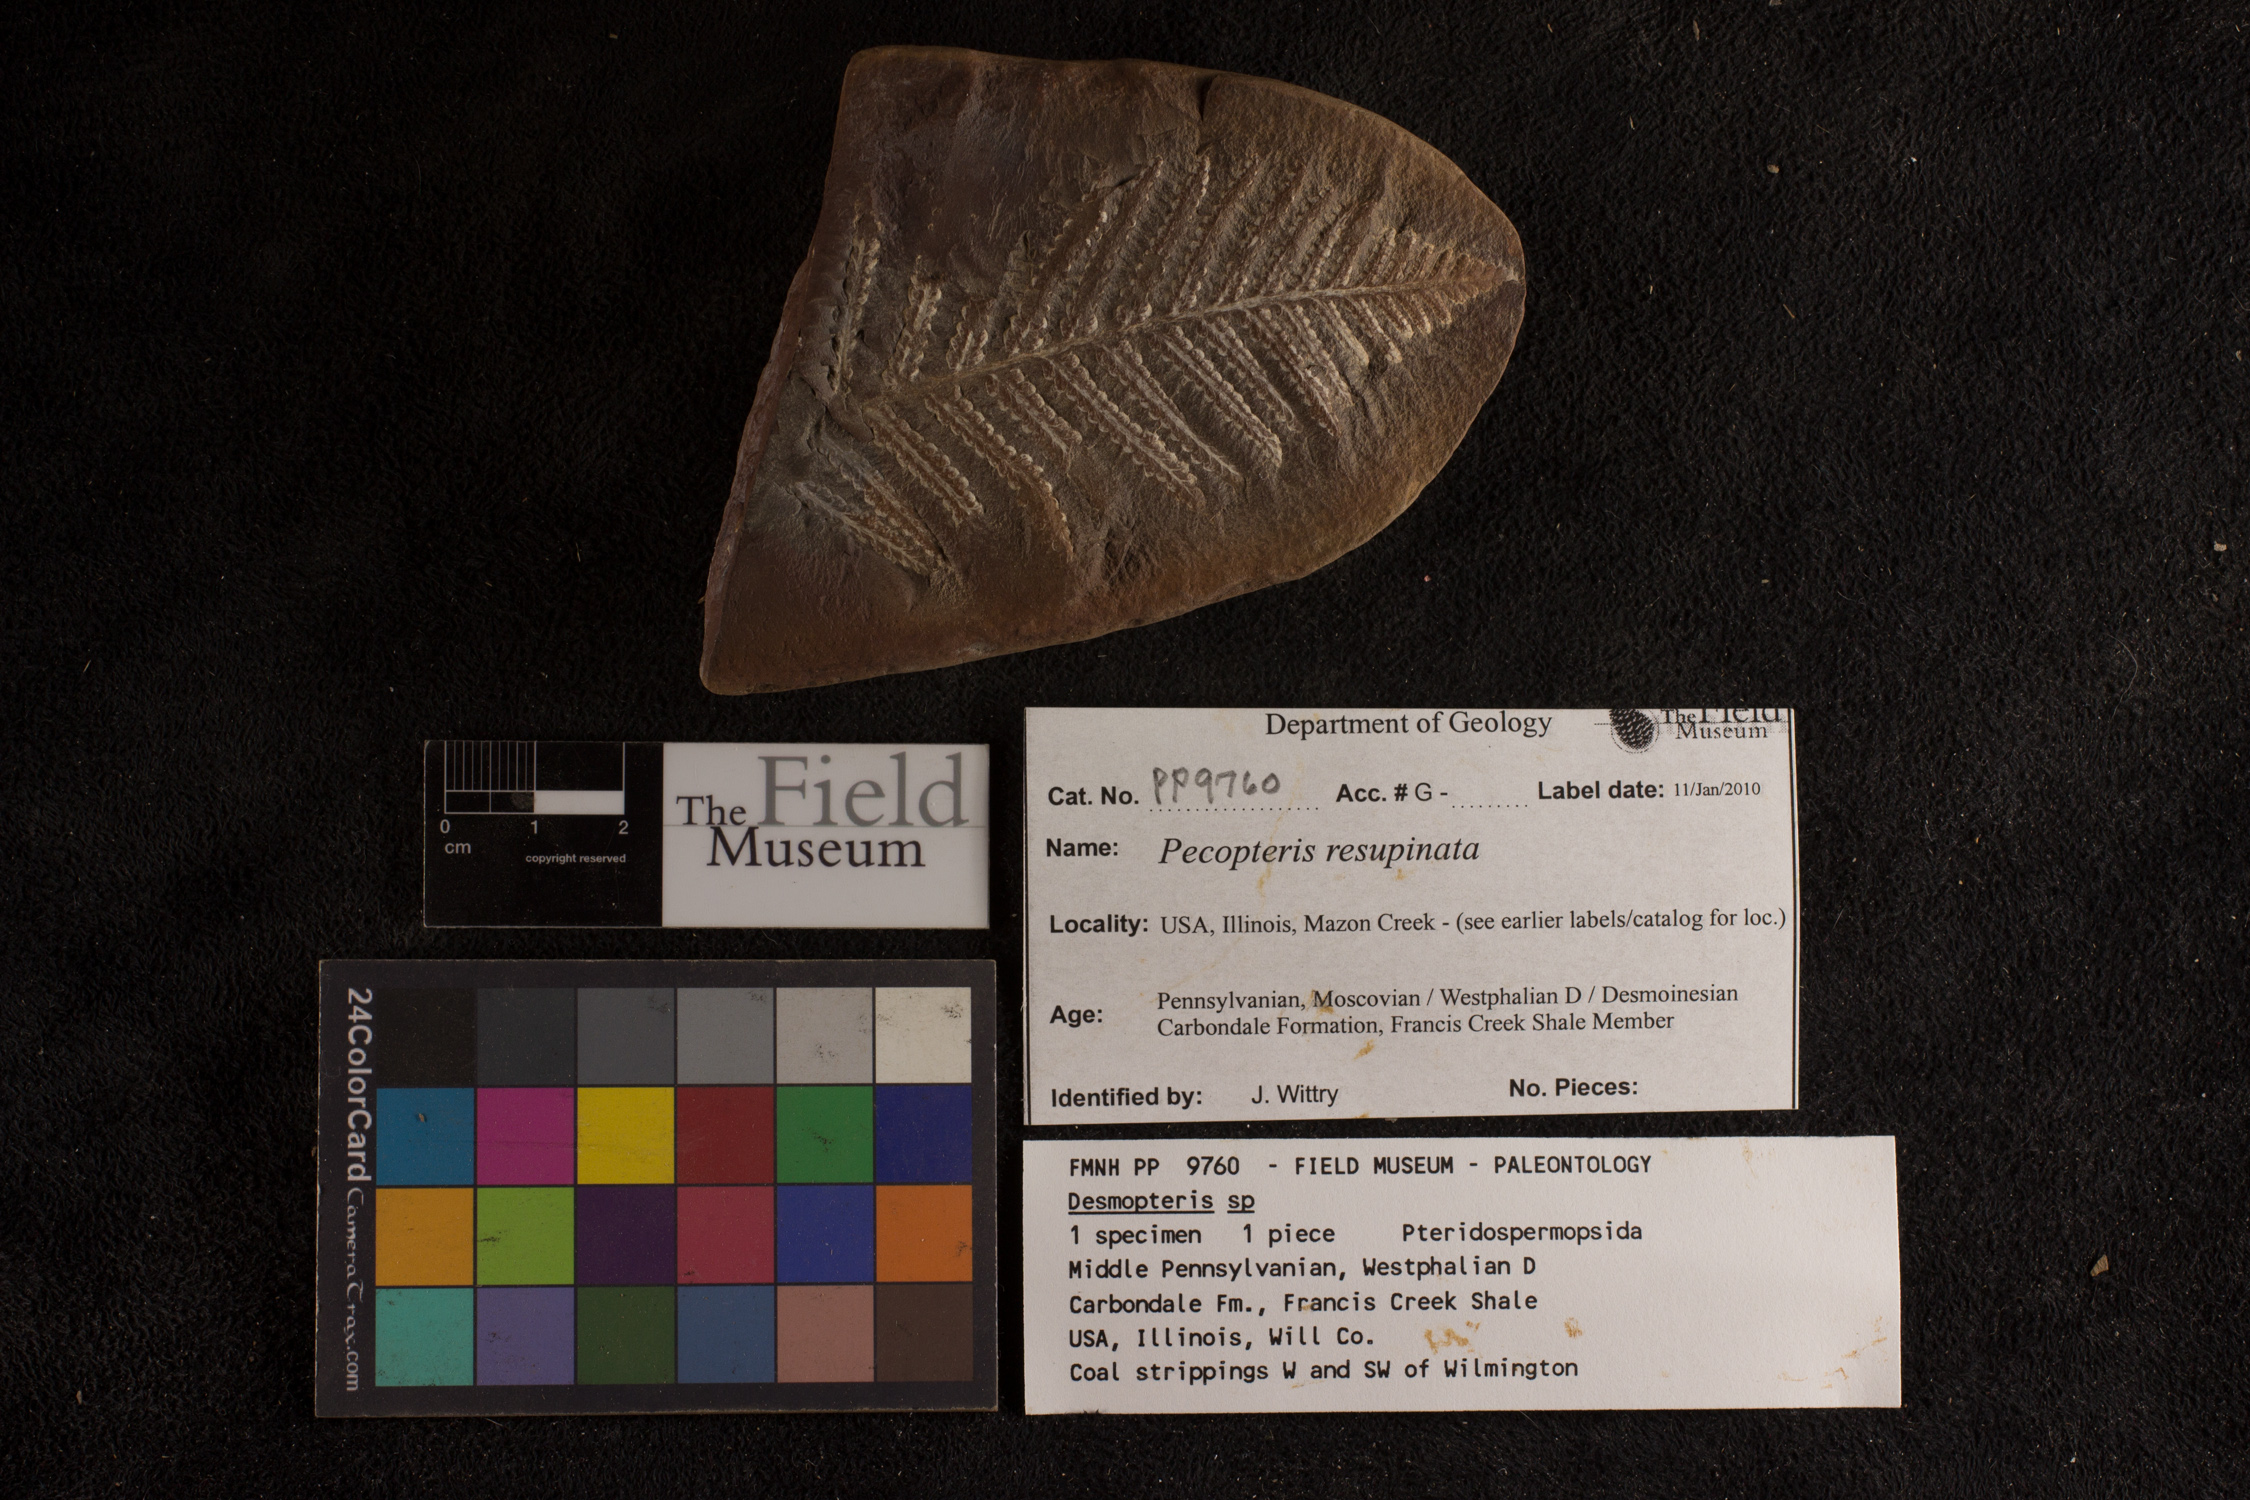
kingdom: Plantae
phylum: Tracheophyta
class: Polypodiopsida
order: Marattiales
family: Asterothecaceae
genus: Pecopteris
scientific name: Pecopteris
